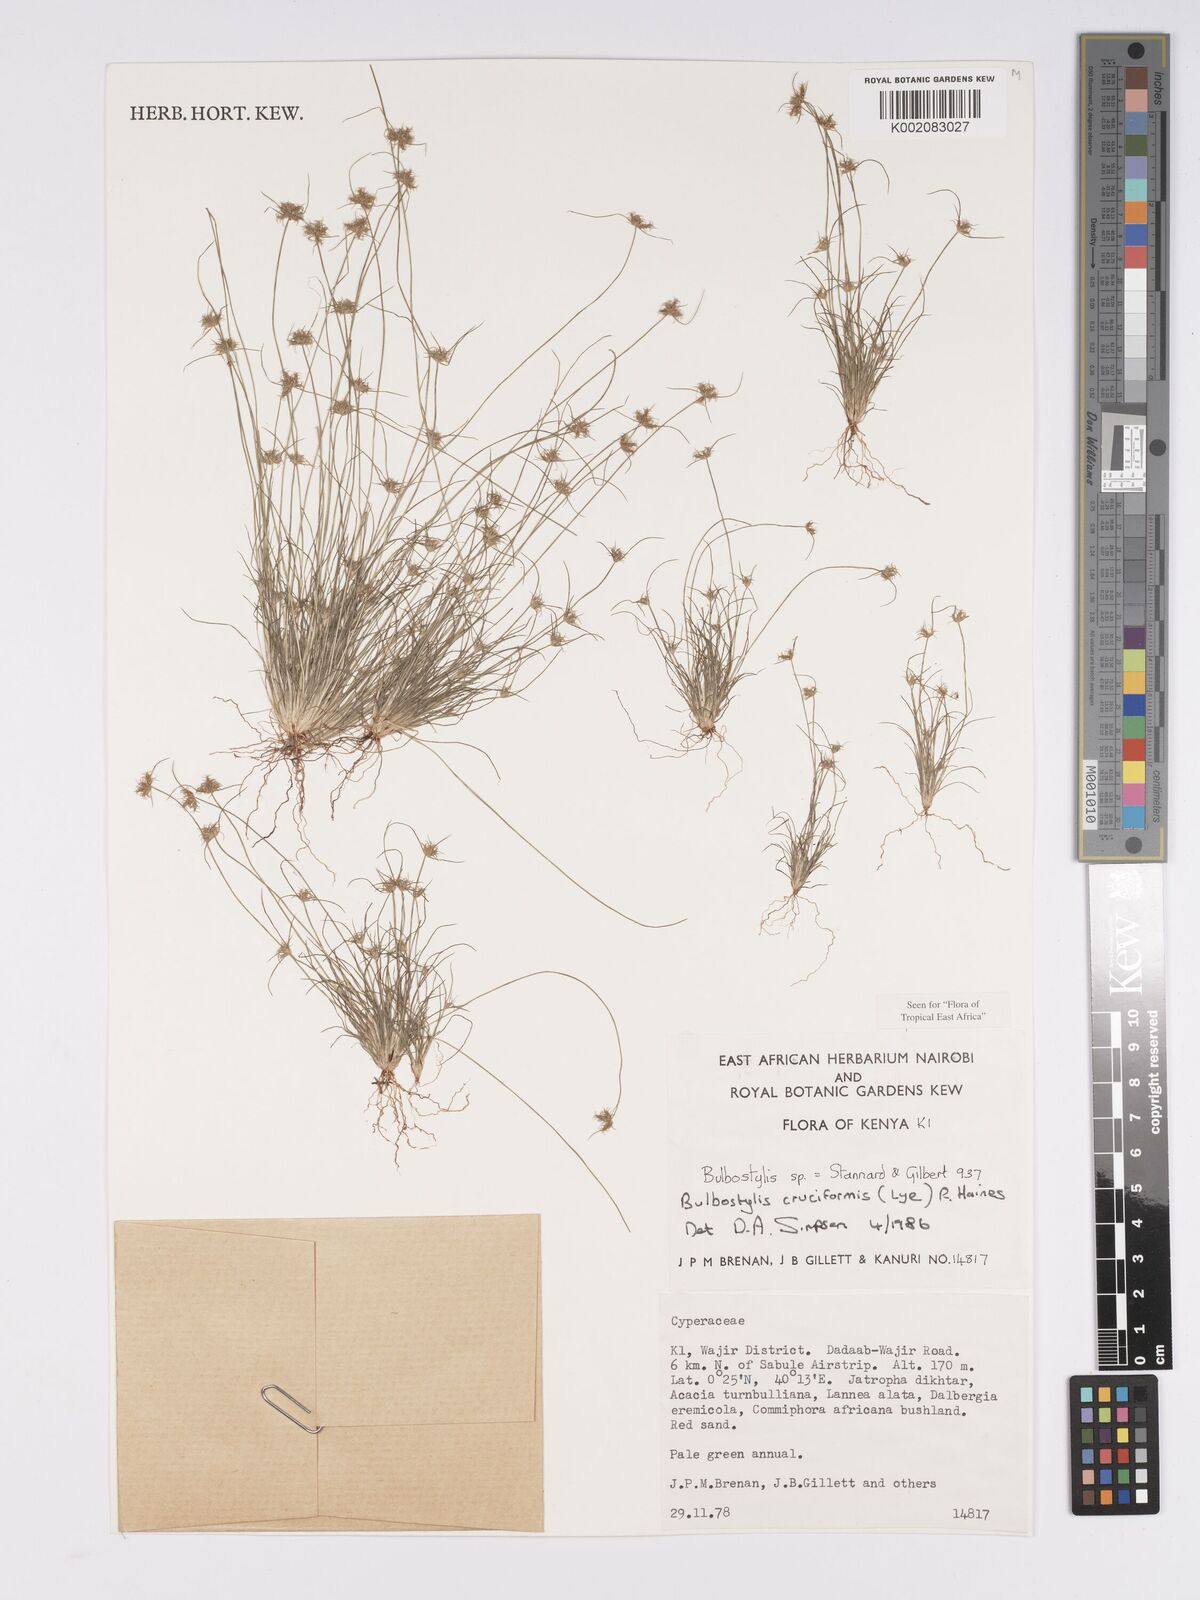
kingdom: Plantae
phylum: Tracheophyta
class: Liliopsida
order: Poales
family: Cyperaceae
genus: Bulbostylis
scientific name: Bulbostylis cruciformis
